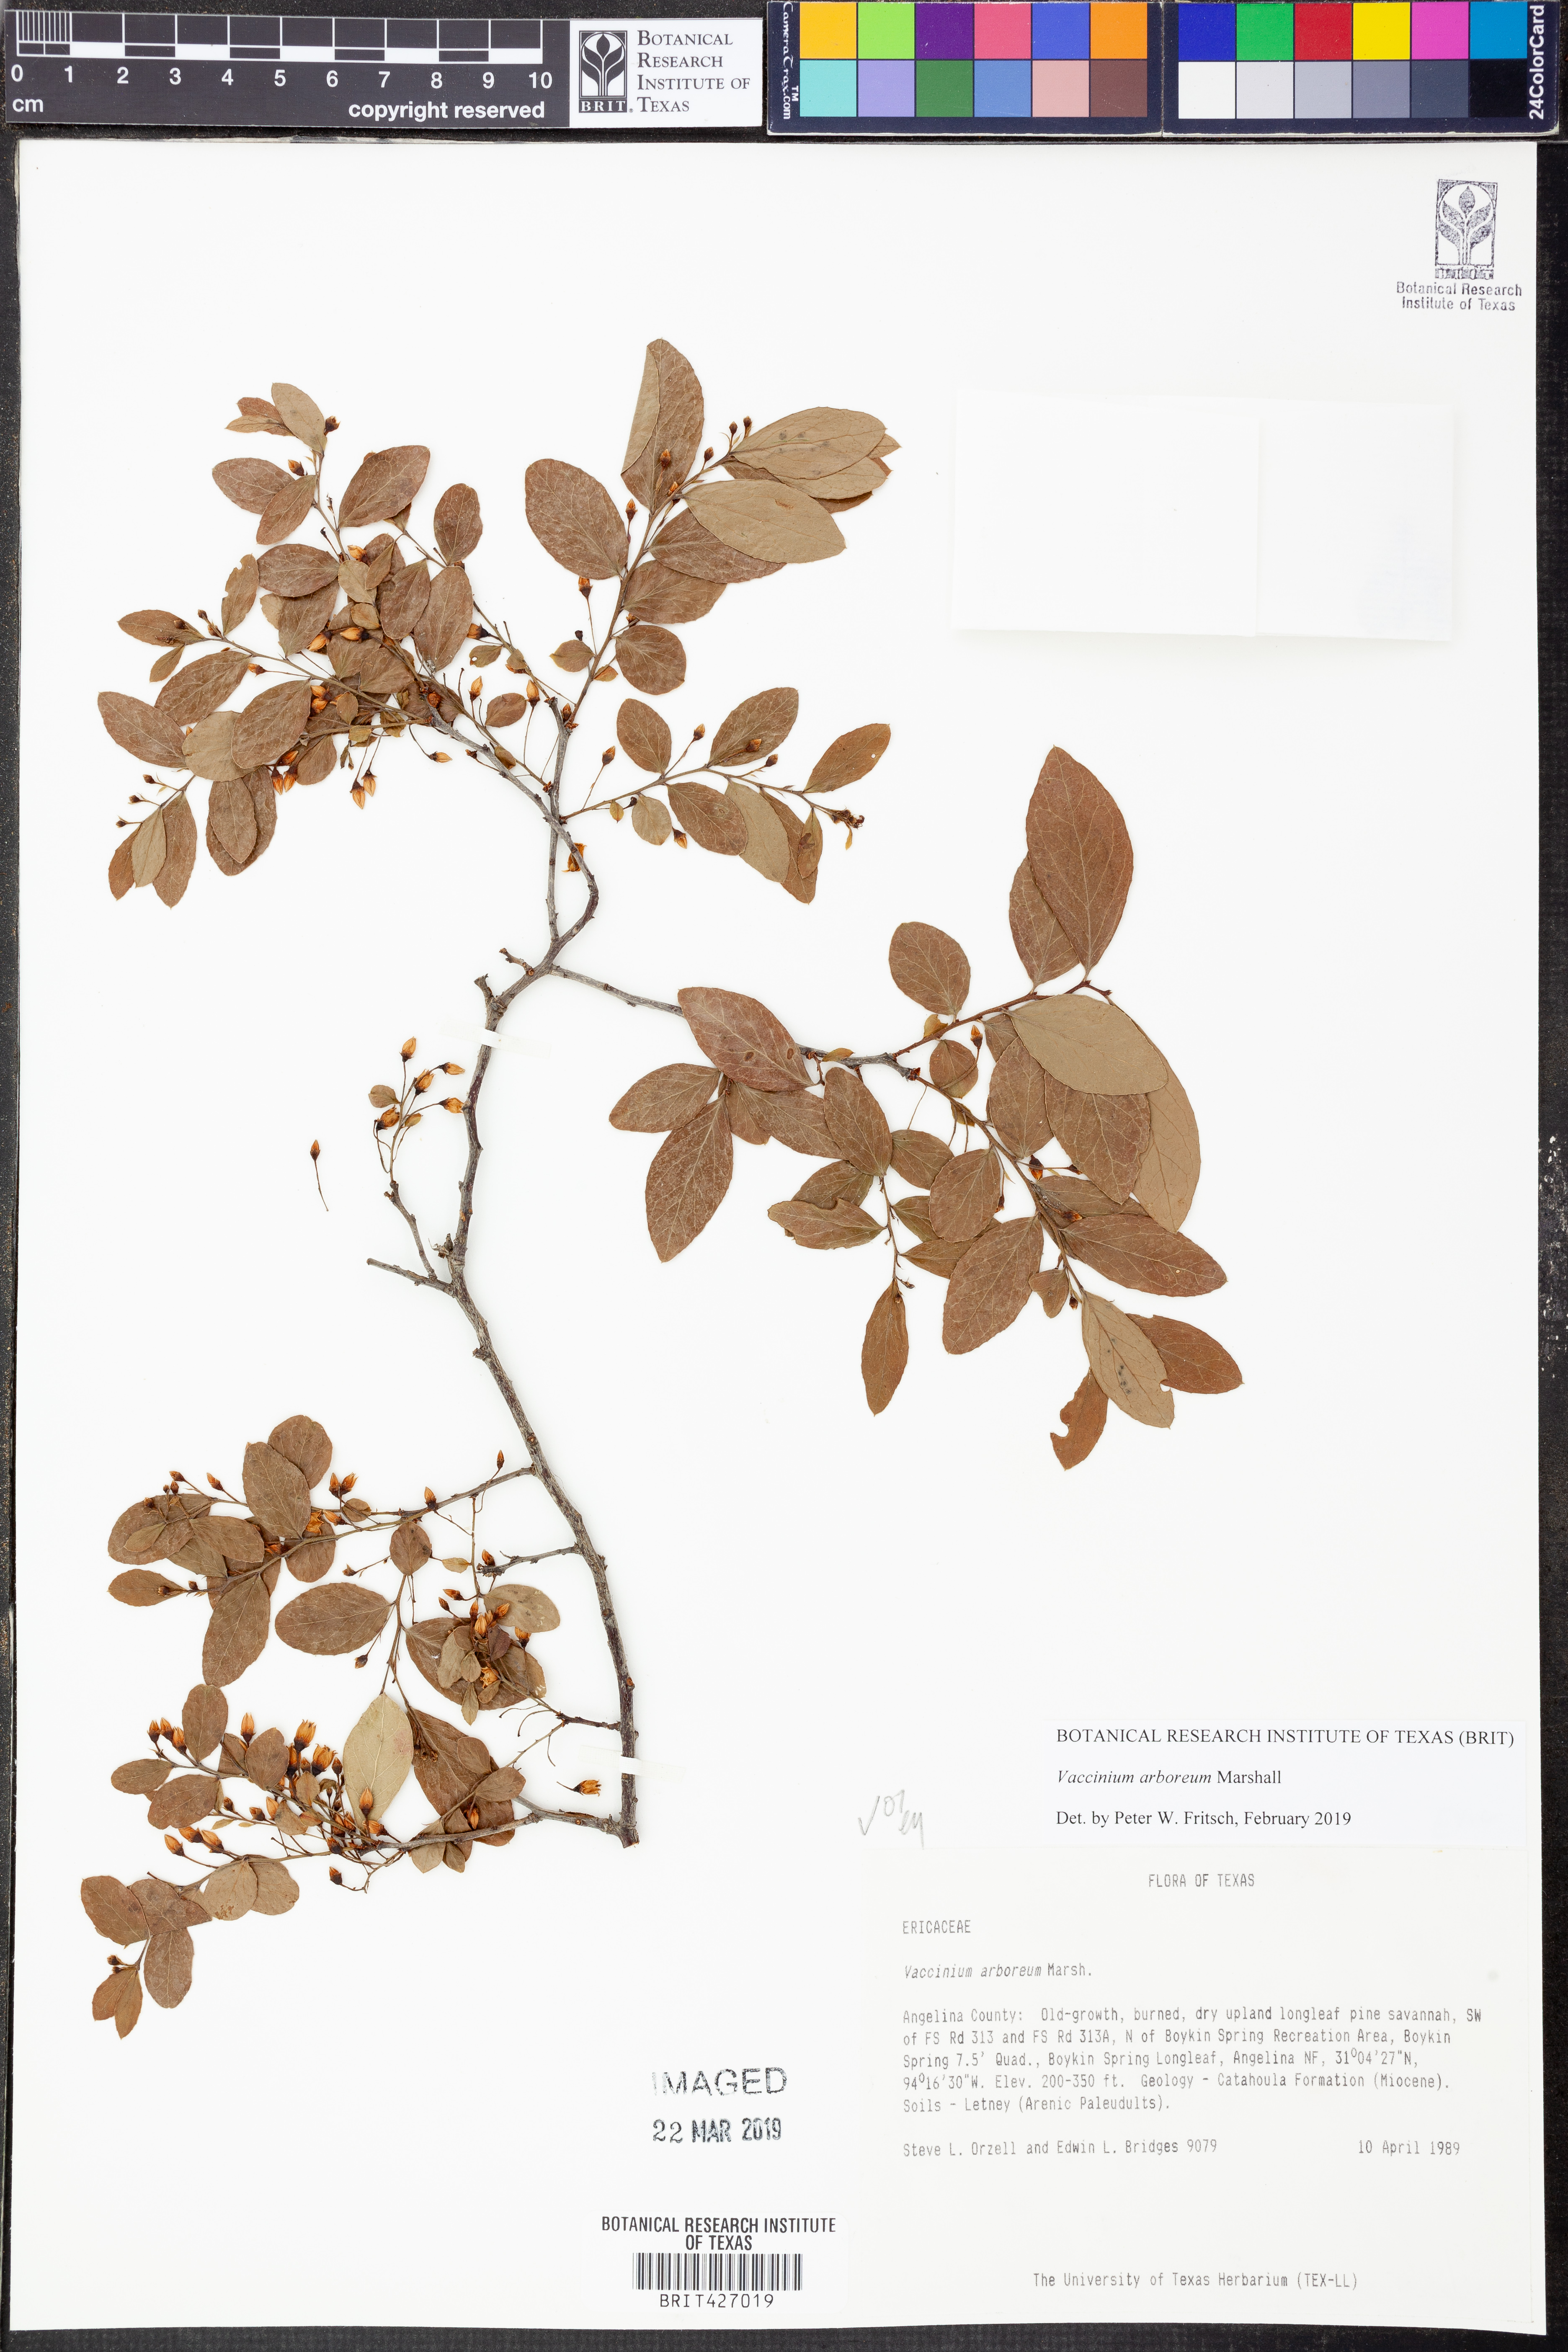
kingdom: Plantae
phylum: Tracheophyta
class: Magnoliopsida
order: Ericales
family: Ericaceae
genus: Vaccinium
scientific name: Vaccinium arboreum
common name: Farkleberry
